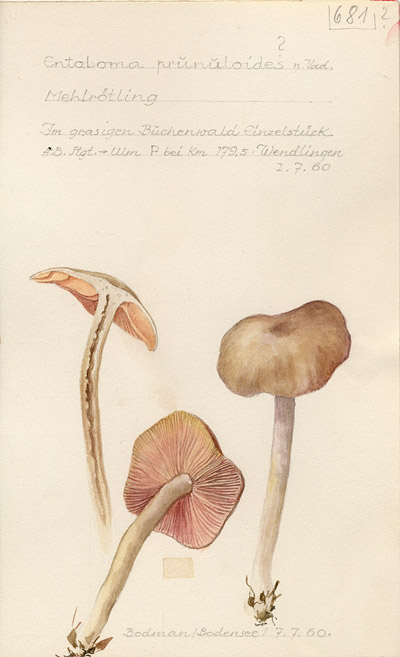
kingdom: Fungi
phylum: Basidiomycota
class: Agaricomycetes
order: Agaricales
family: Entolomataceae
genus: Entoloma
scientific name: Entoloma prunuloides
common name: Mealy pinkgill
